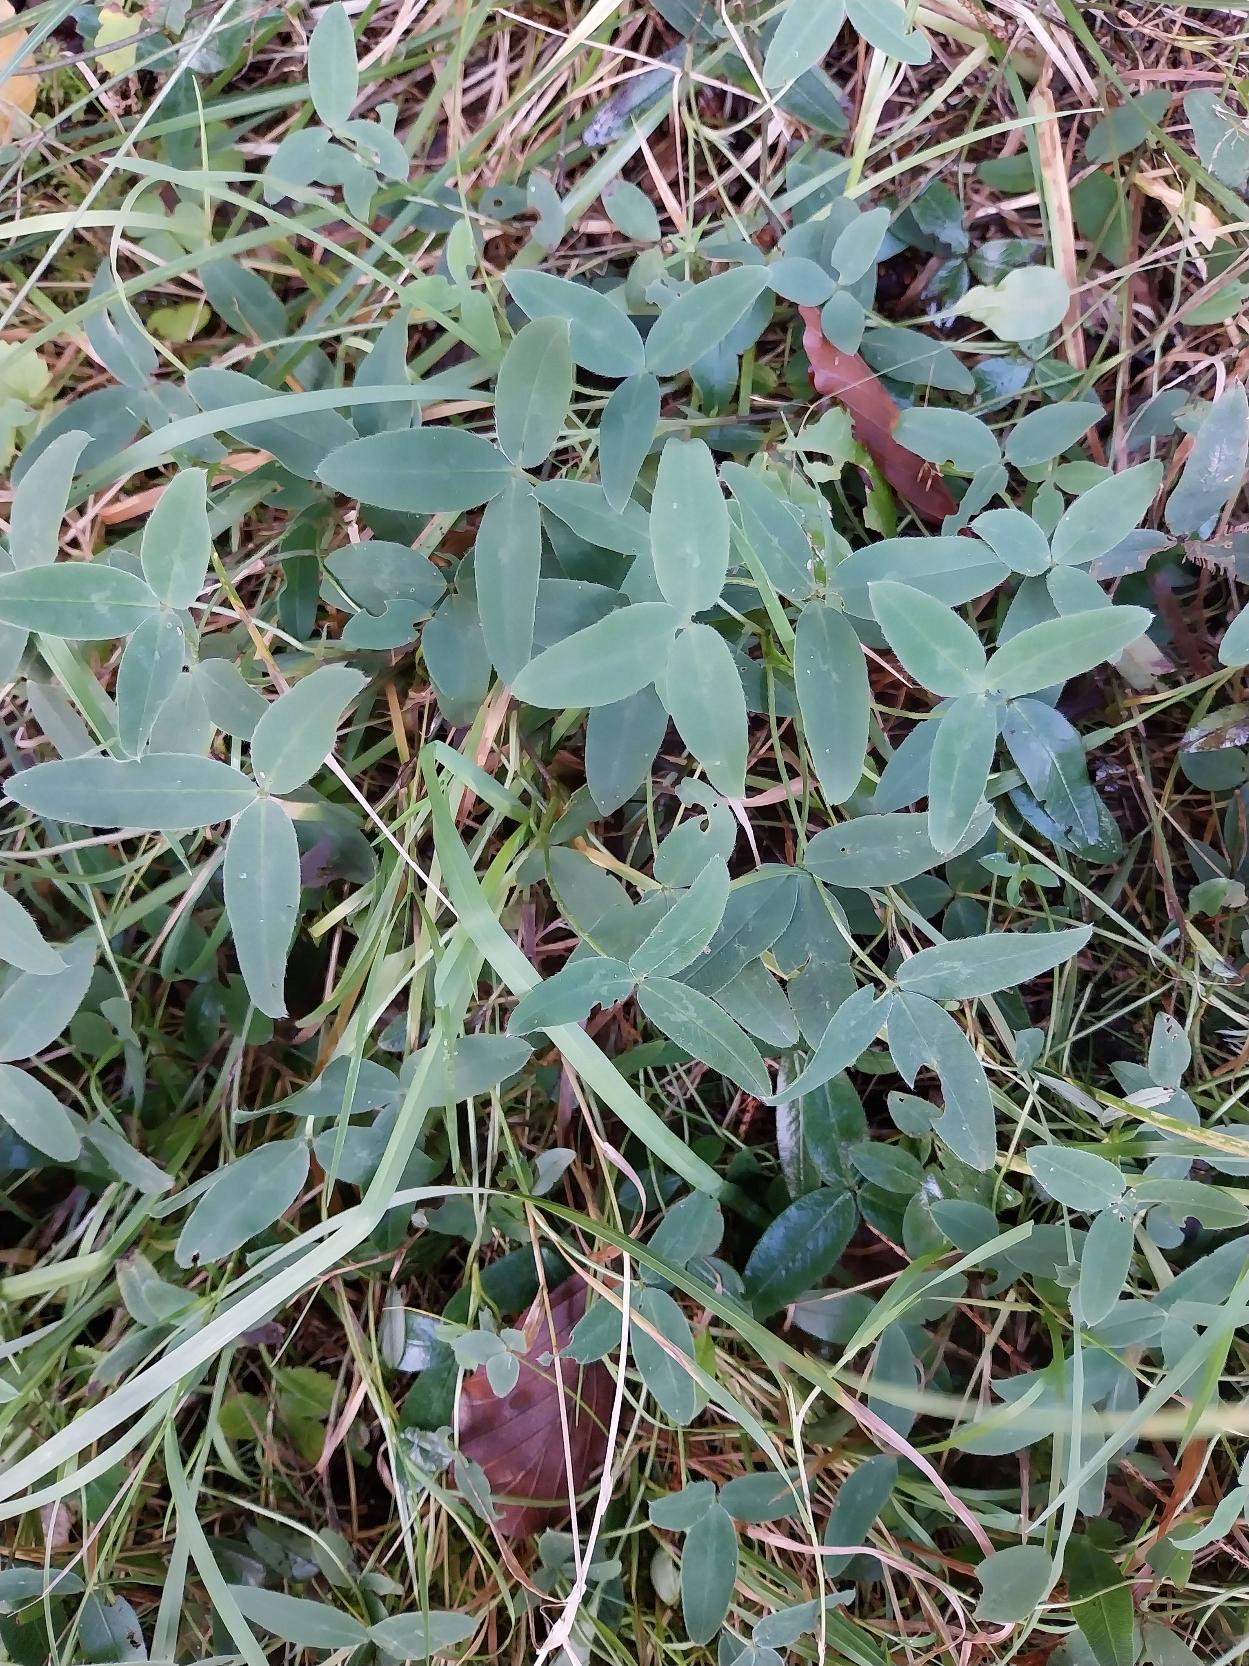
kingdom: Plantae
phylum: Tracheophyta
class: Magnoliopsida
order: Fabales
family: Fabaceae
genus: Trifolium
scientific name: Trifolium medium
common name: Bugtet kløver
